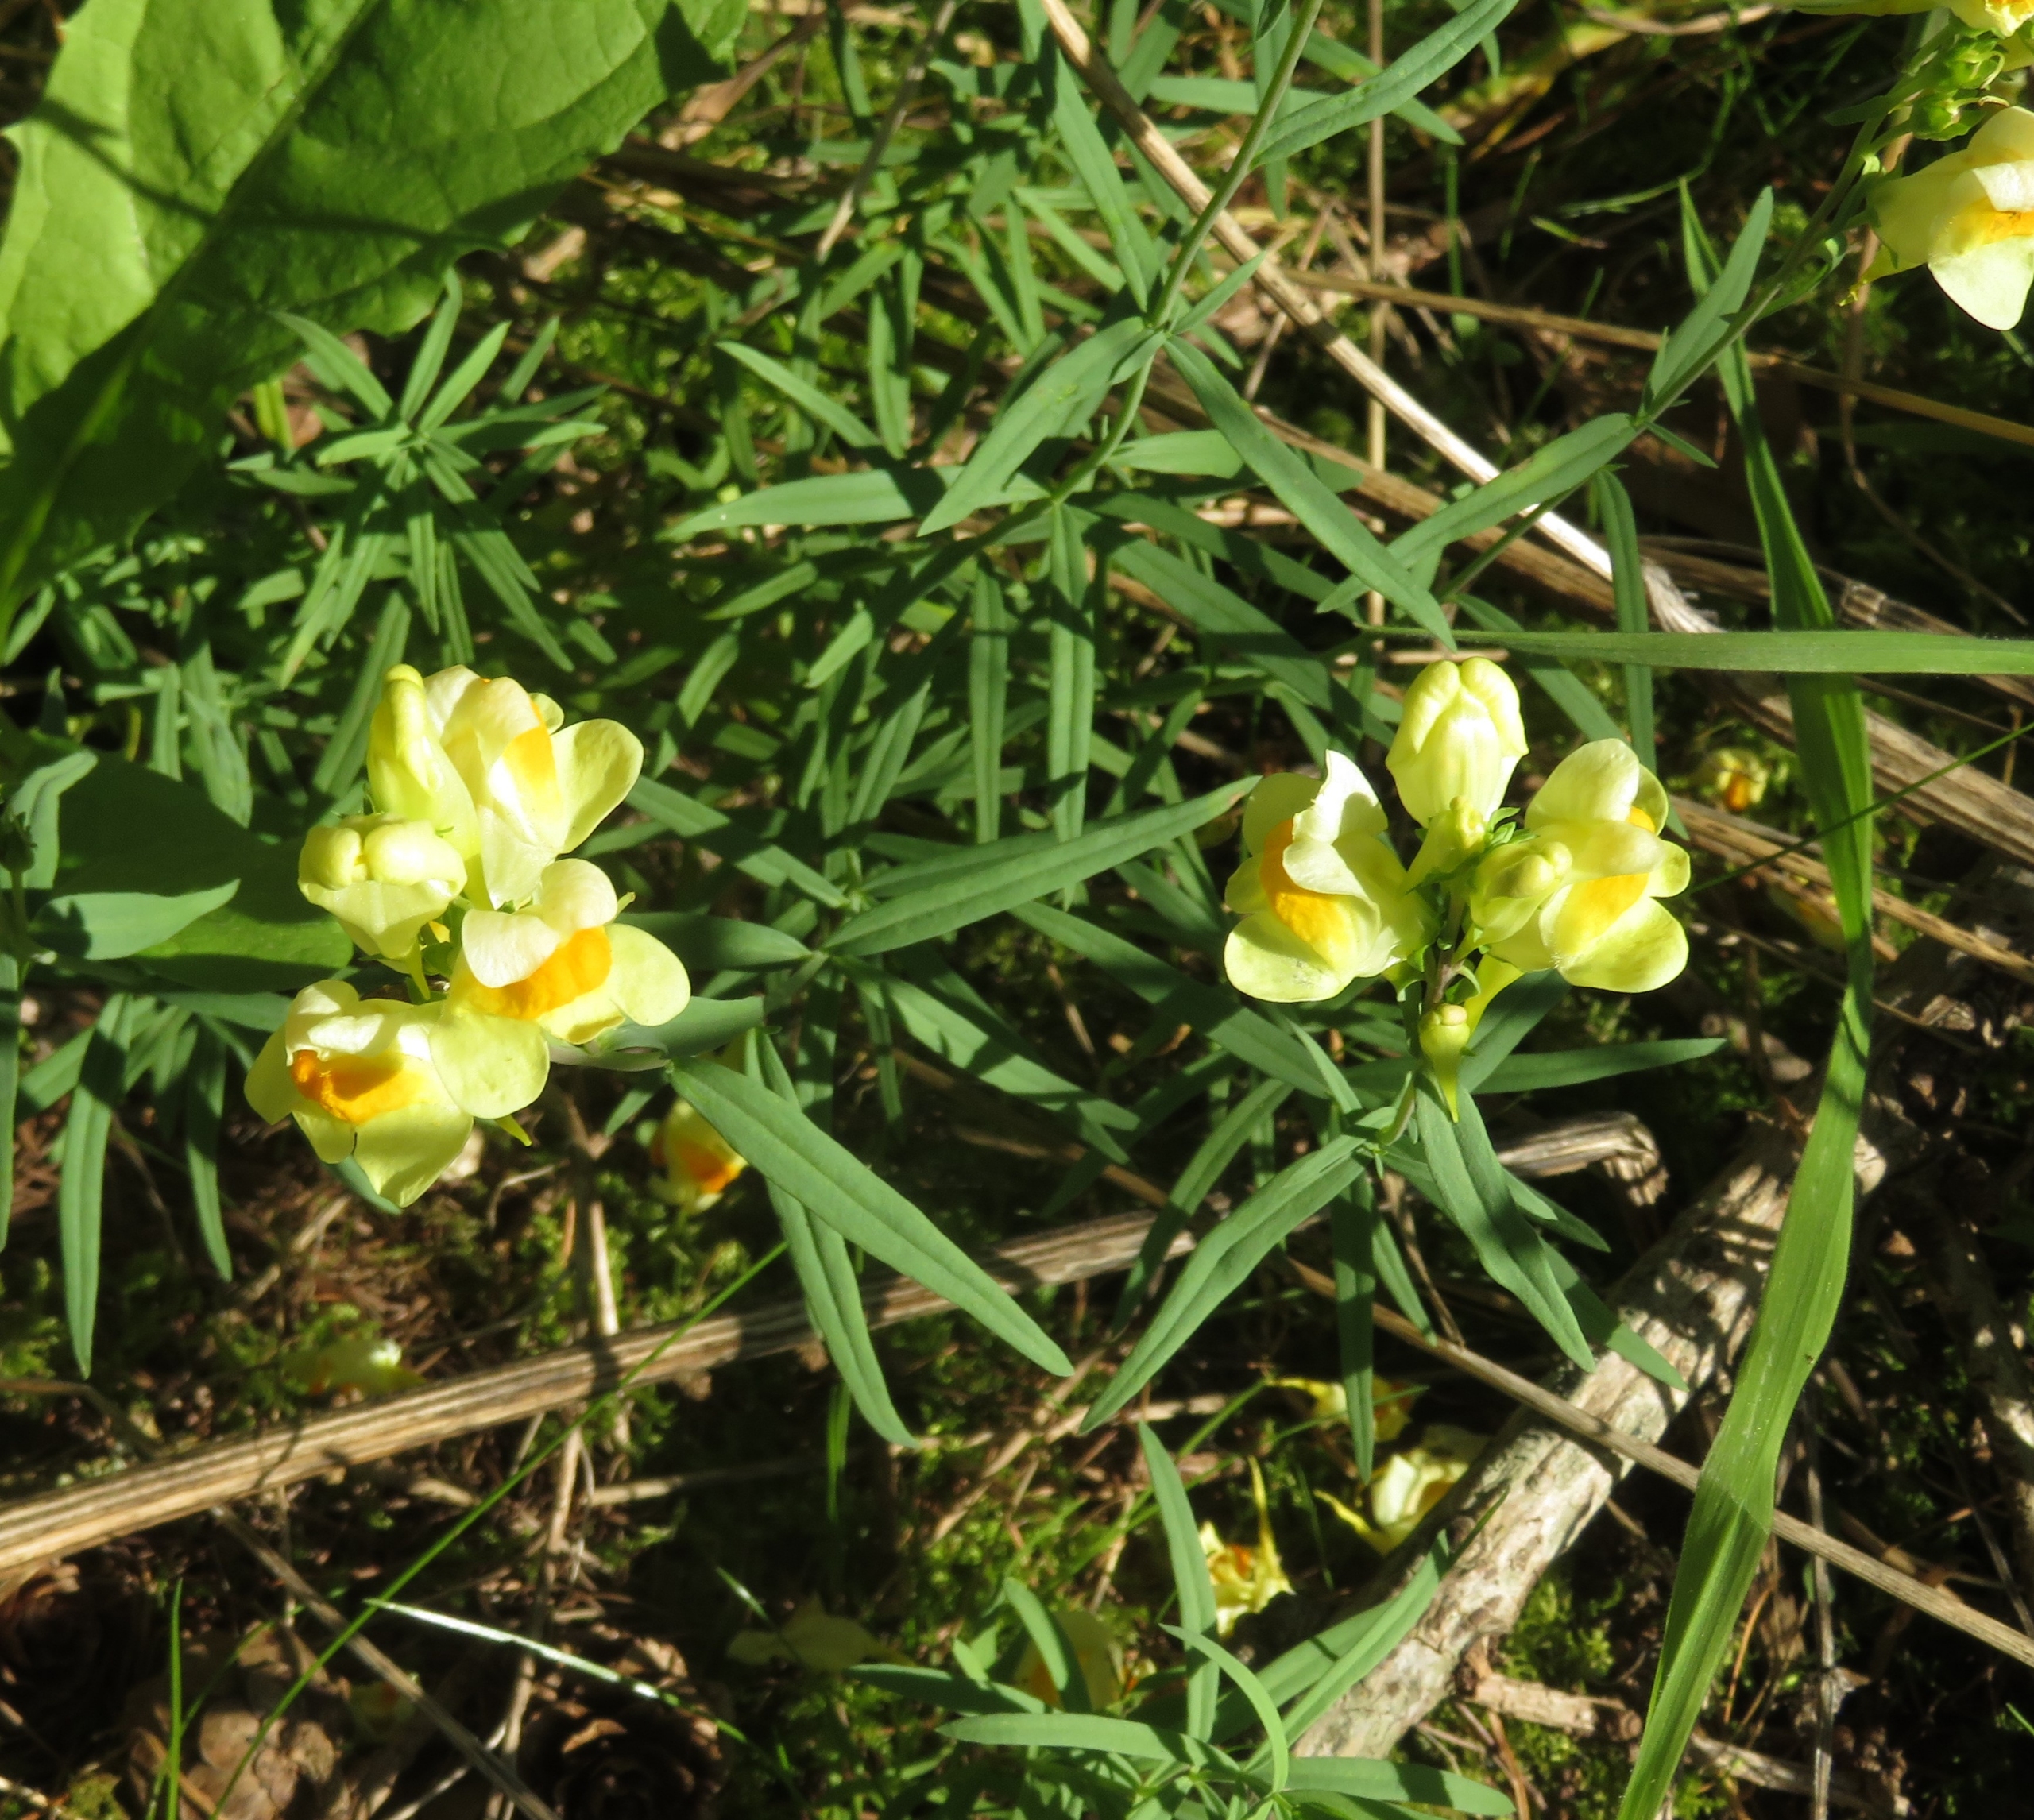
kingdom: Plantae
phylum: Tracheophyta
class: Magnoliopsida
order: Lamiales
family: Plantaginaceae
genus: Linaria
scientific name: Linaria vulgaris
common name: Almindelig torskemund
